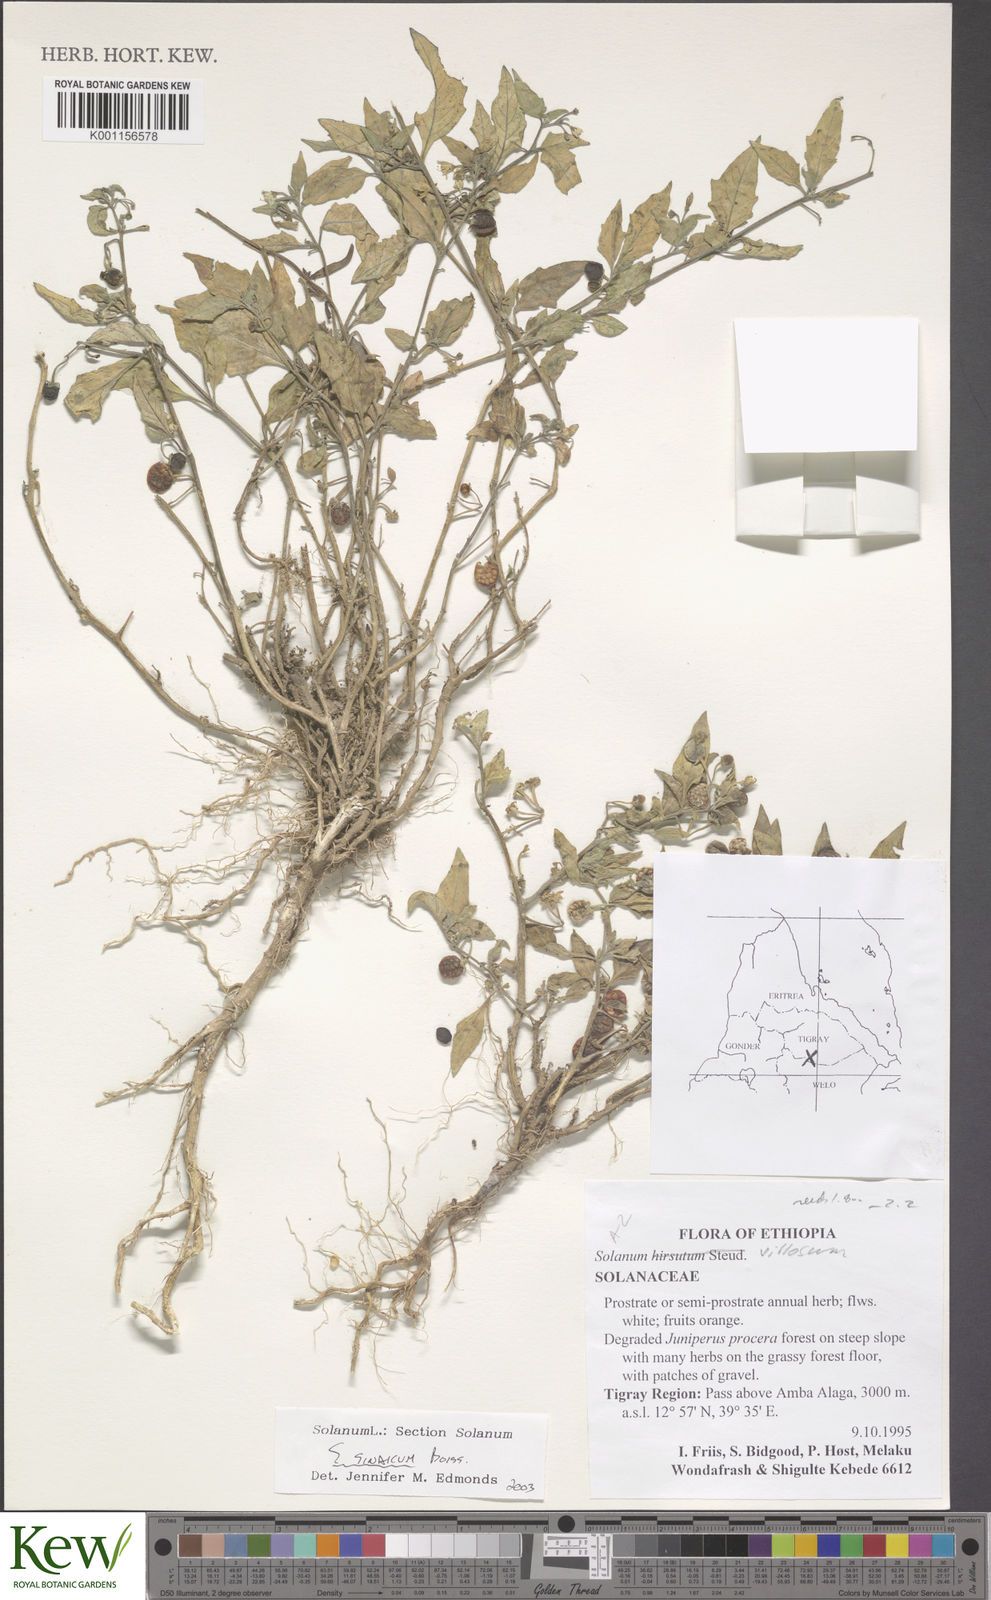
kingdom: Plantae
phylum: Tracheophyta
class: Magnoliopsida
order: Solanales
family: Solanaceae
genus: Solanum
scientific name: Solanum villosum
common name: Red nightshade
